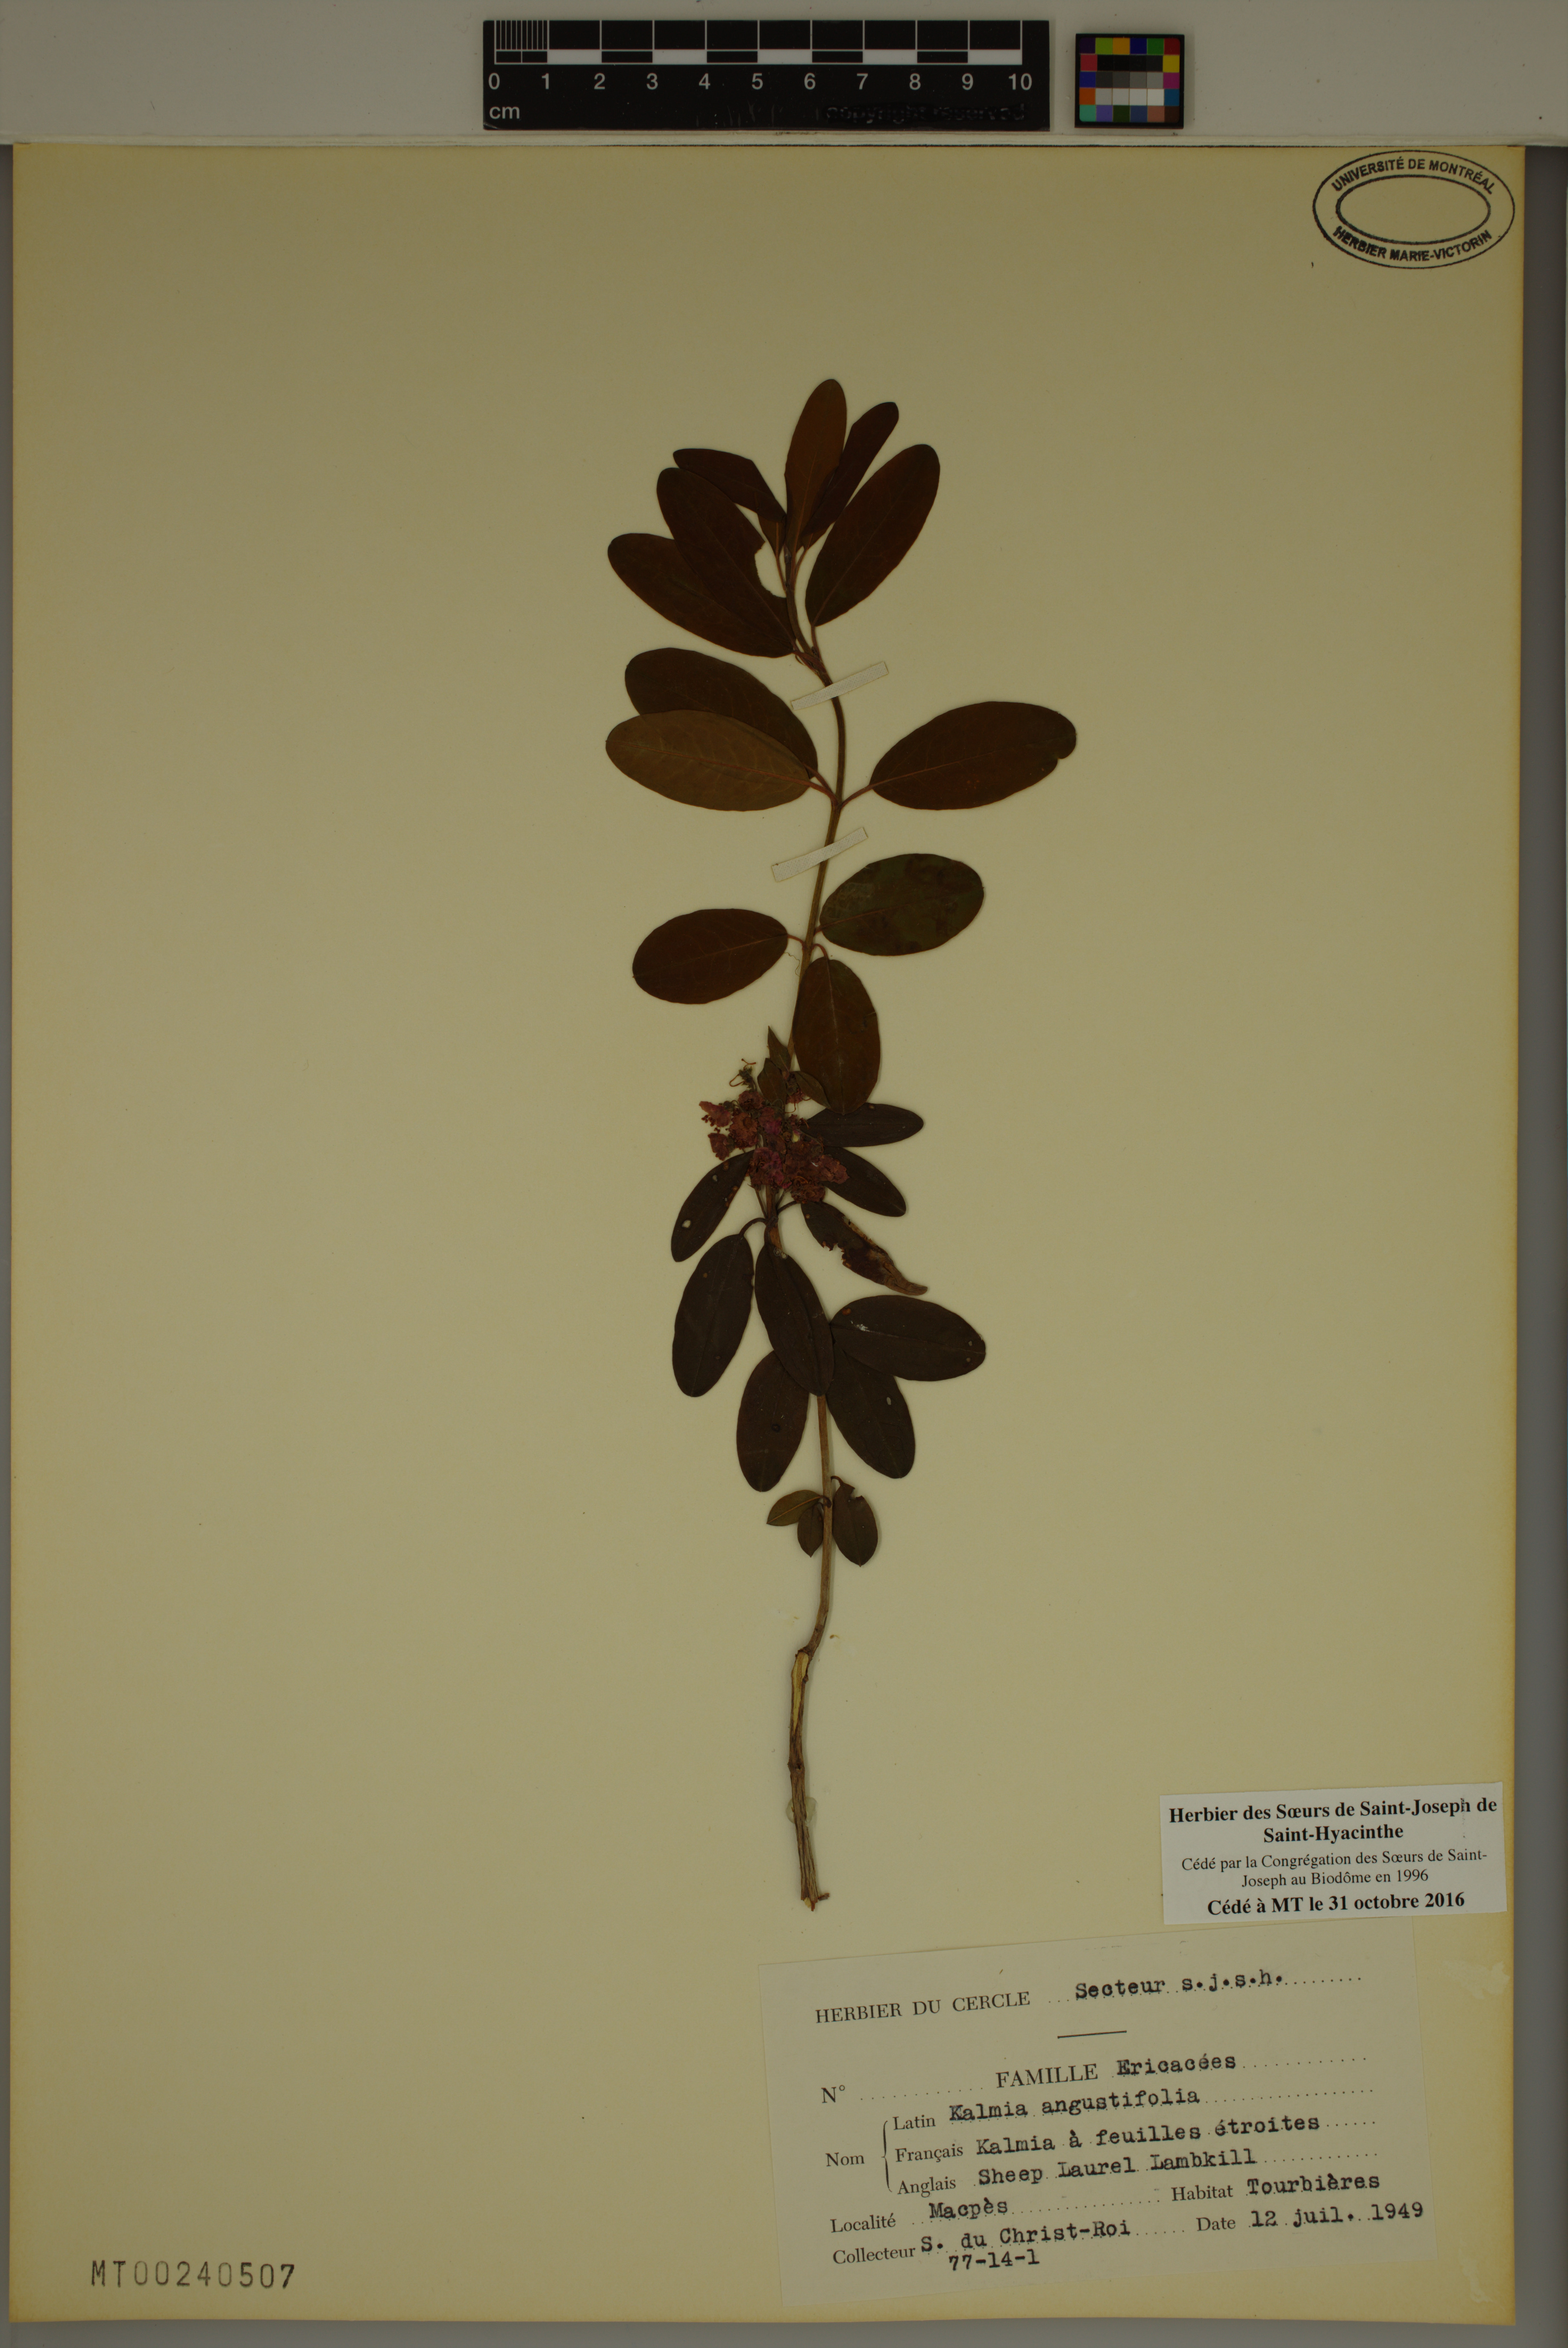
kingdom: Plantae
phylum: Tracheophyta
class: Magnoliopsida
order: Ericales
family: Ericaceae
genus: Kalmia
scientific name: Kalmia angustifolia
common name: Sheep-laurel
